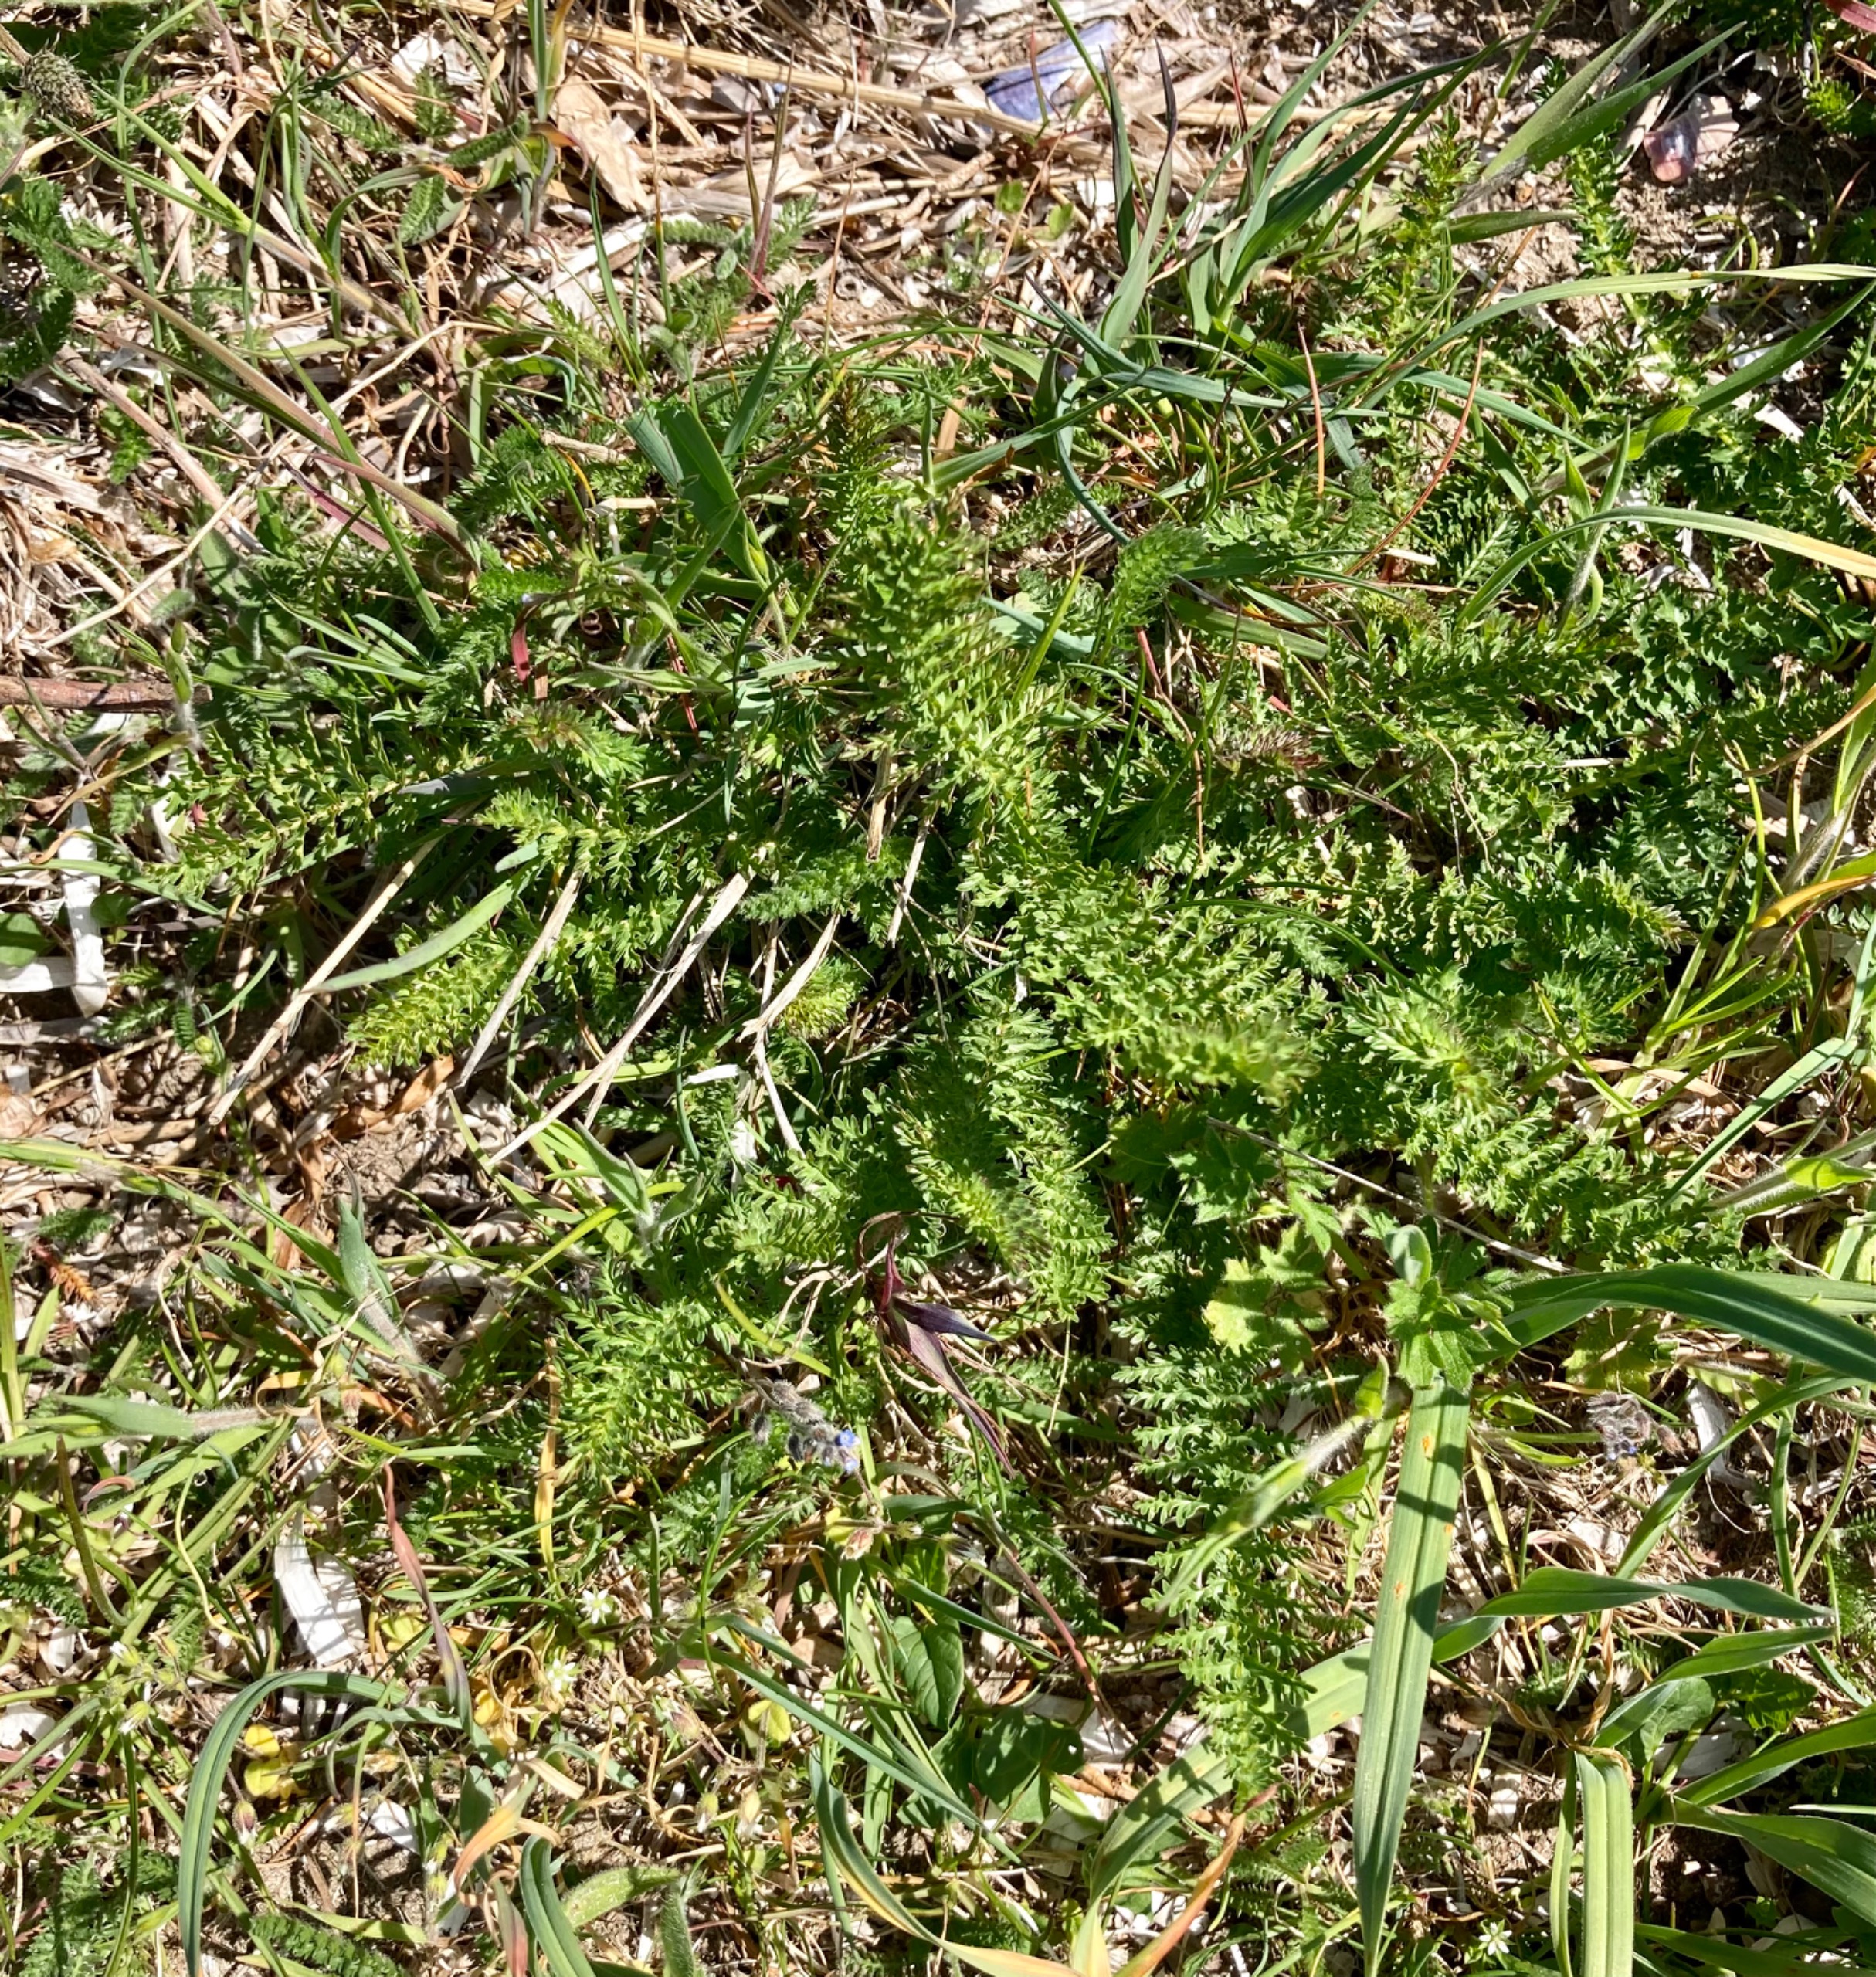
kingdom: Plantae
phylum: Tracheophyta
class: Magnoliopsida
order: Rosales
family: Rosaceae
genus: Filipendula
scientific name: Filipendula vulgaris
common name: Knoldet mjødurt
